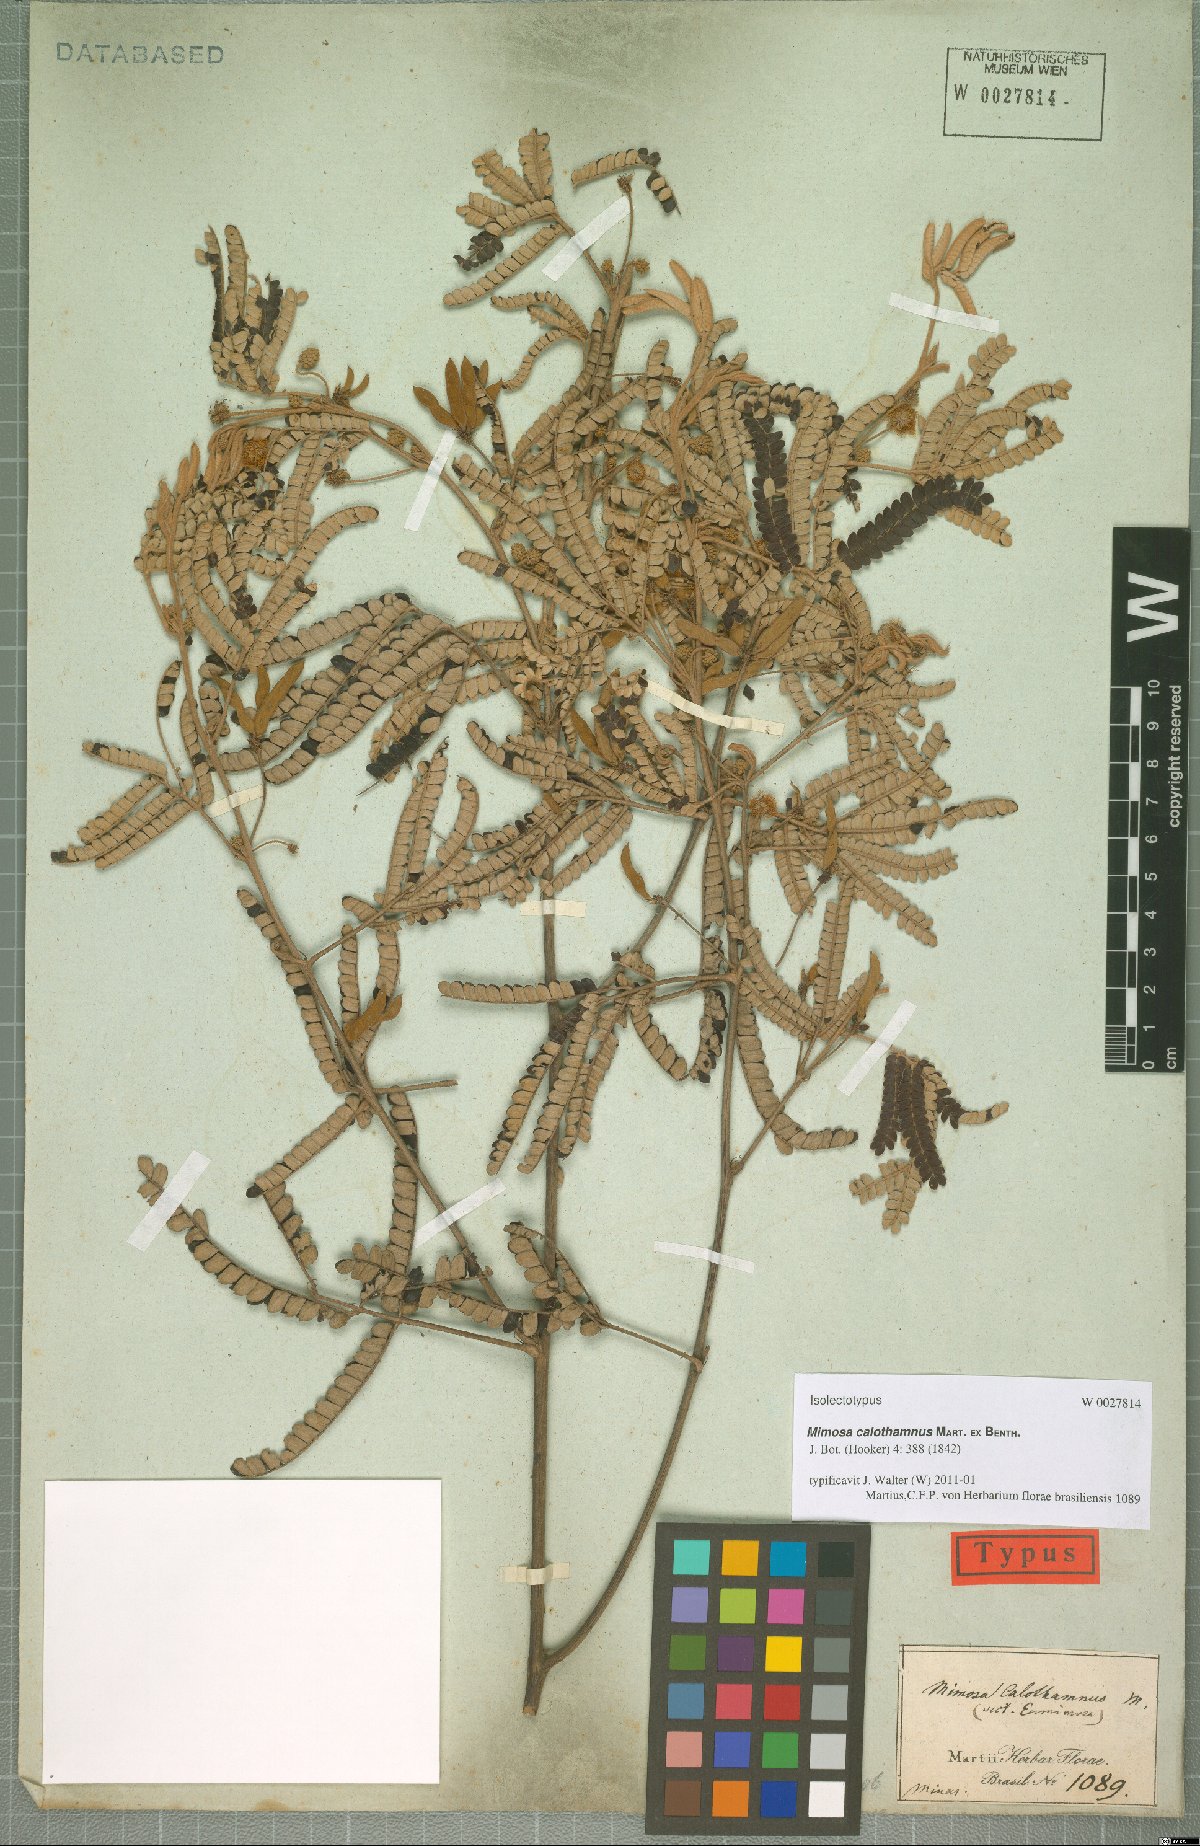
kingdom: Plantae
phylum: Tracheophyta
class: Magnoliopsida
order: Fabales
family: Fabaceae
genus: Mimosa
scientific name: Mimosa calothamnus
